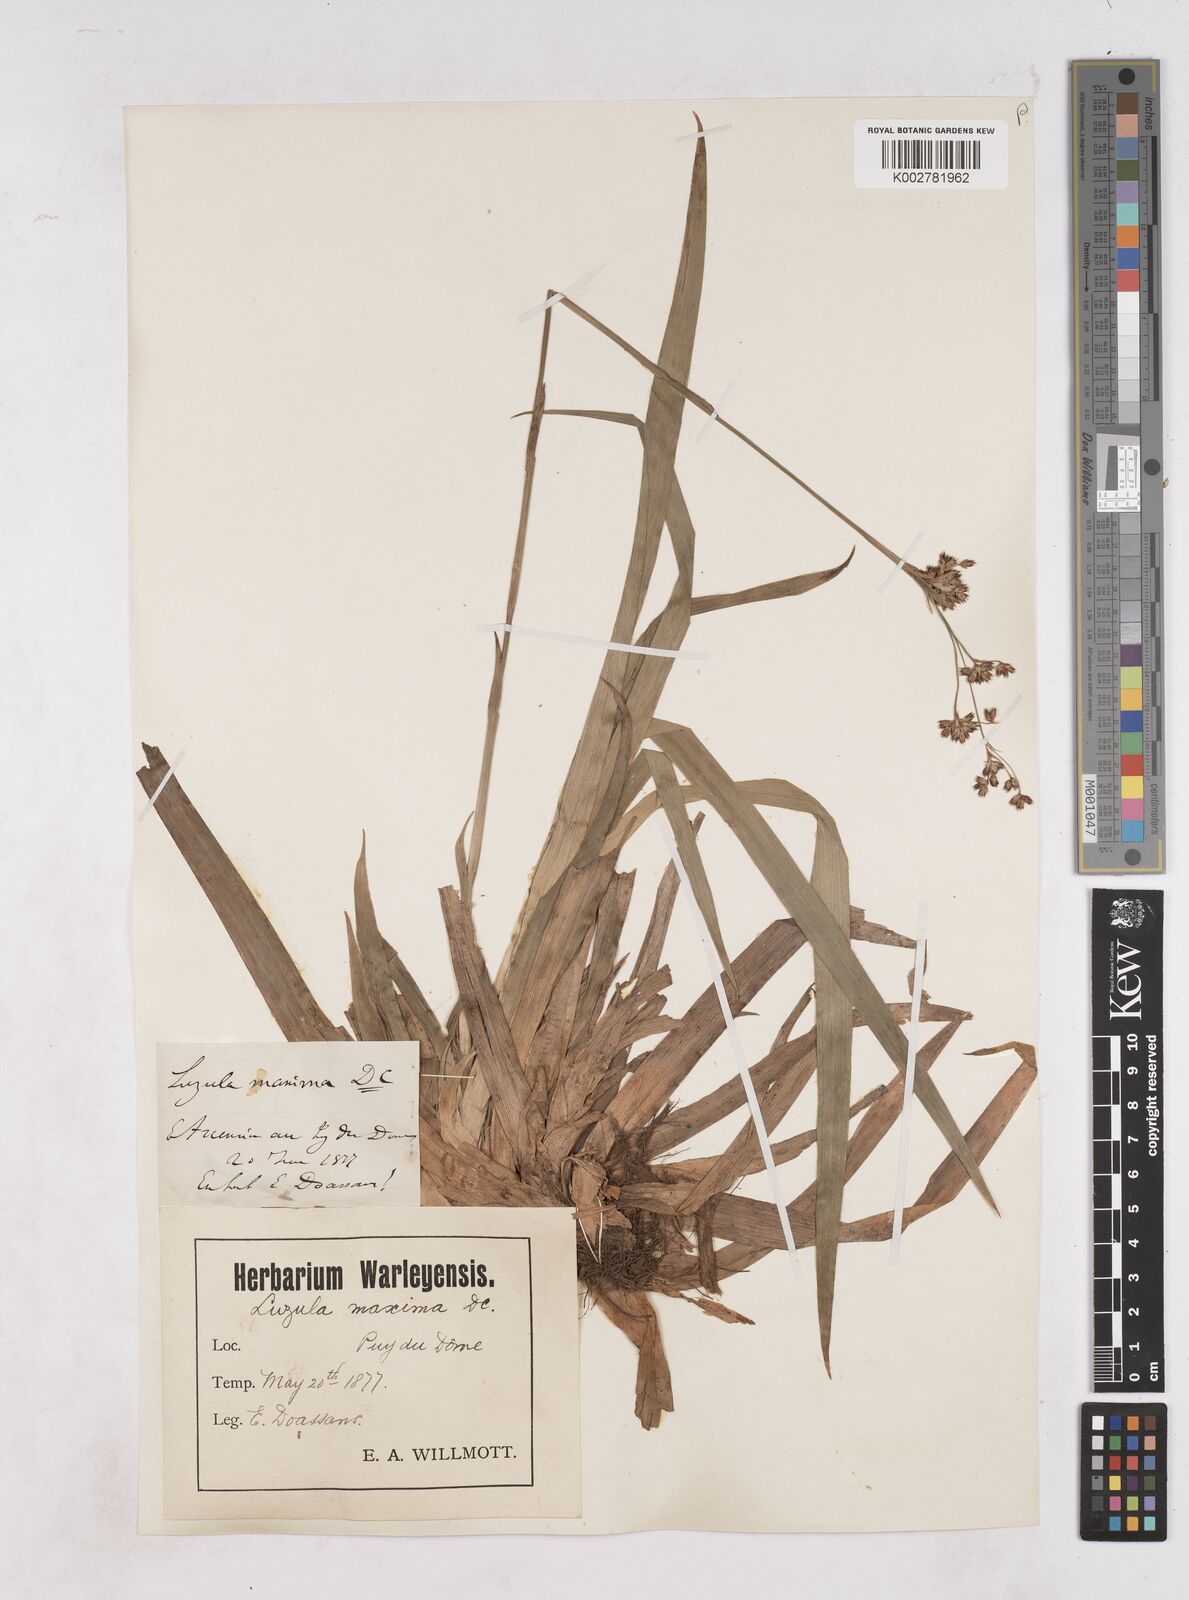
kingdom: Plantae
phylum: Tracheophyta
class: Liliopsida
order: Poales
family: Juncaceae
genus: Luzula
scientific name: Luzula sylvatica
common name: Great wood-rush
